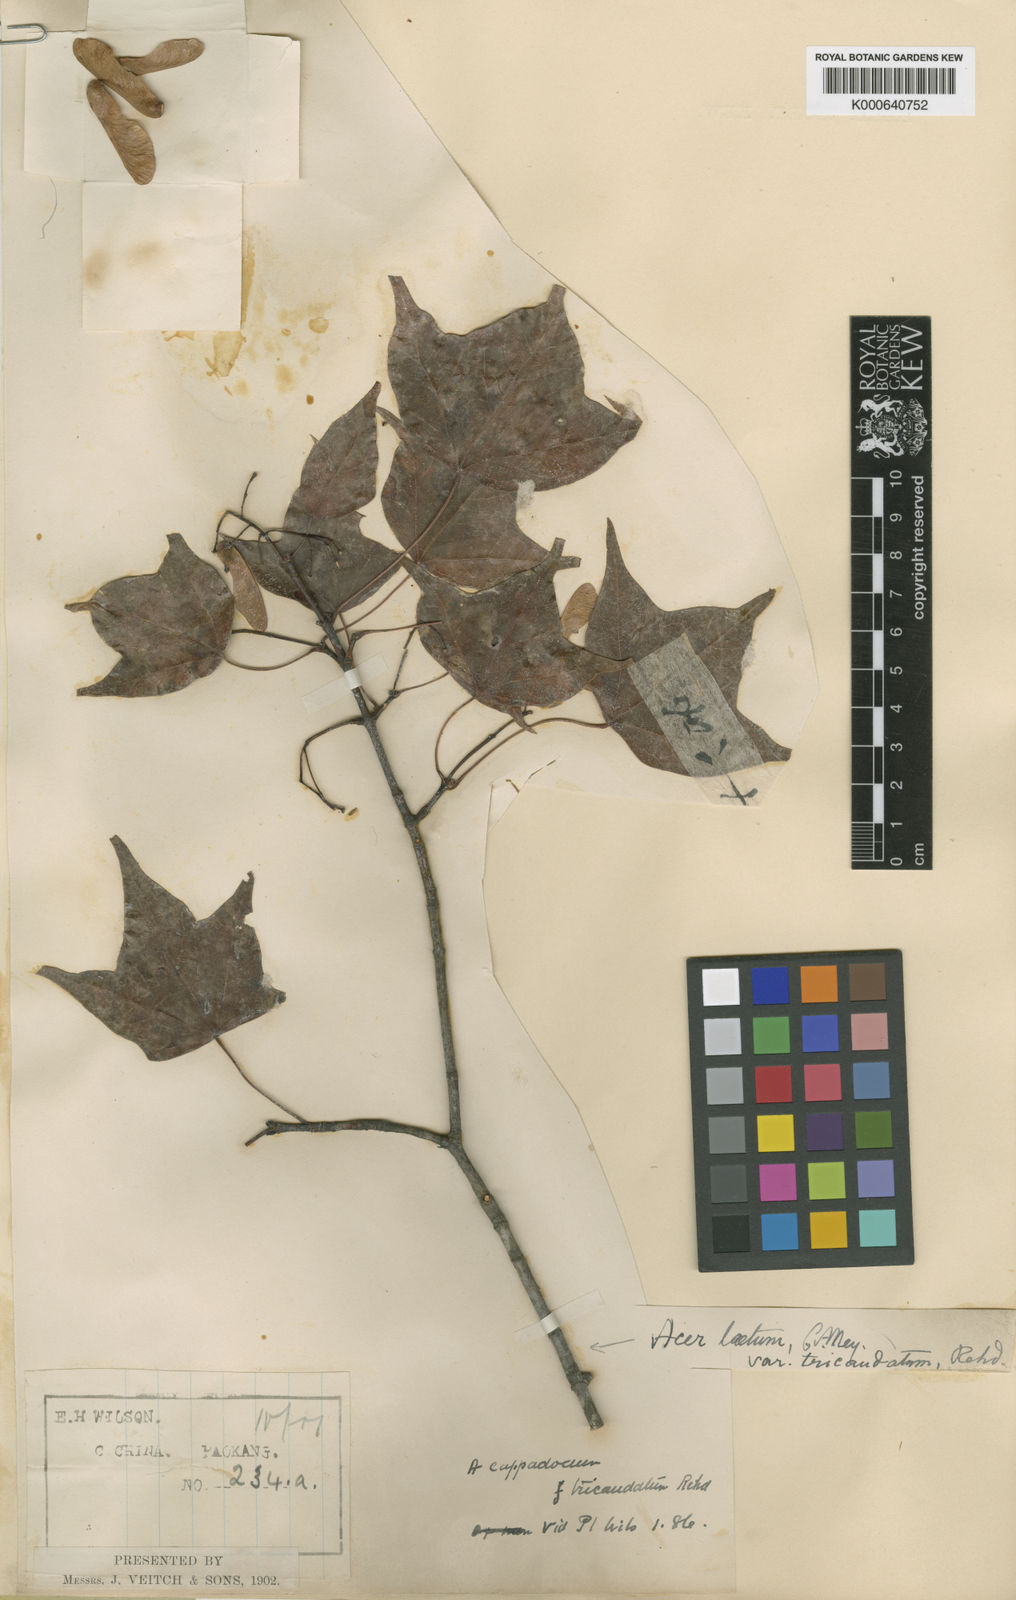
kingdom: Plantae
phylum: Tracheophyta
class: Magnoliopsida
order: Sapindales
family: Sapindaceae
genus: Acer
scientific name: Acer
